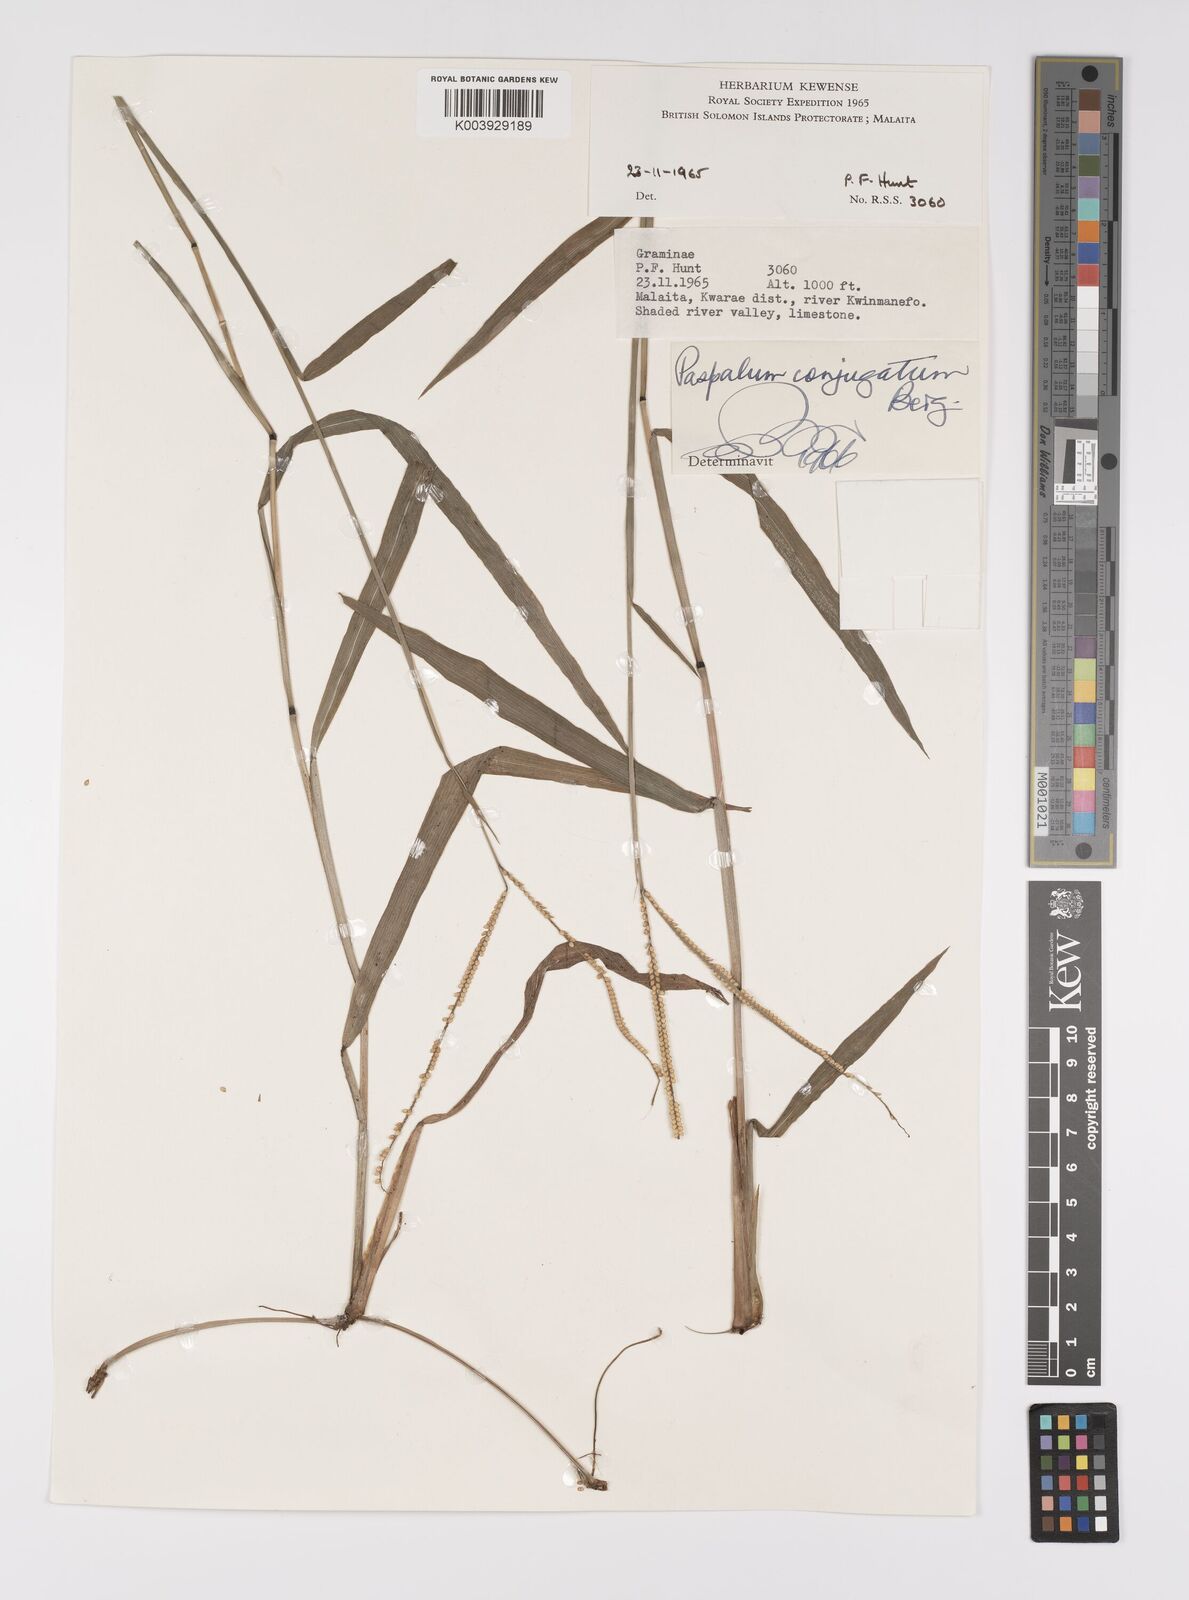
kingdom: Plantae
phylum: Tracheophyta
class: Liliopsida
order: Poales
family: Poaceae
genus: Paspalum
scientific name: Paspalum conjugatum
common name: Hilograss
